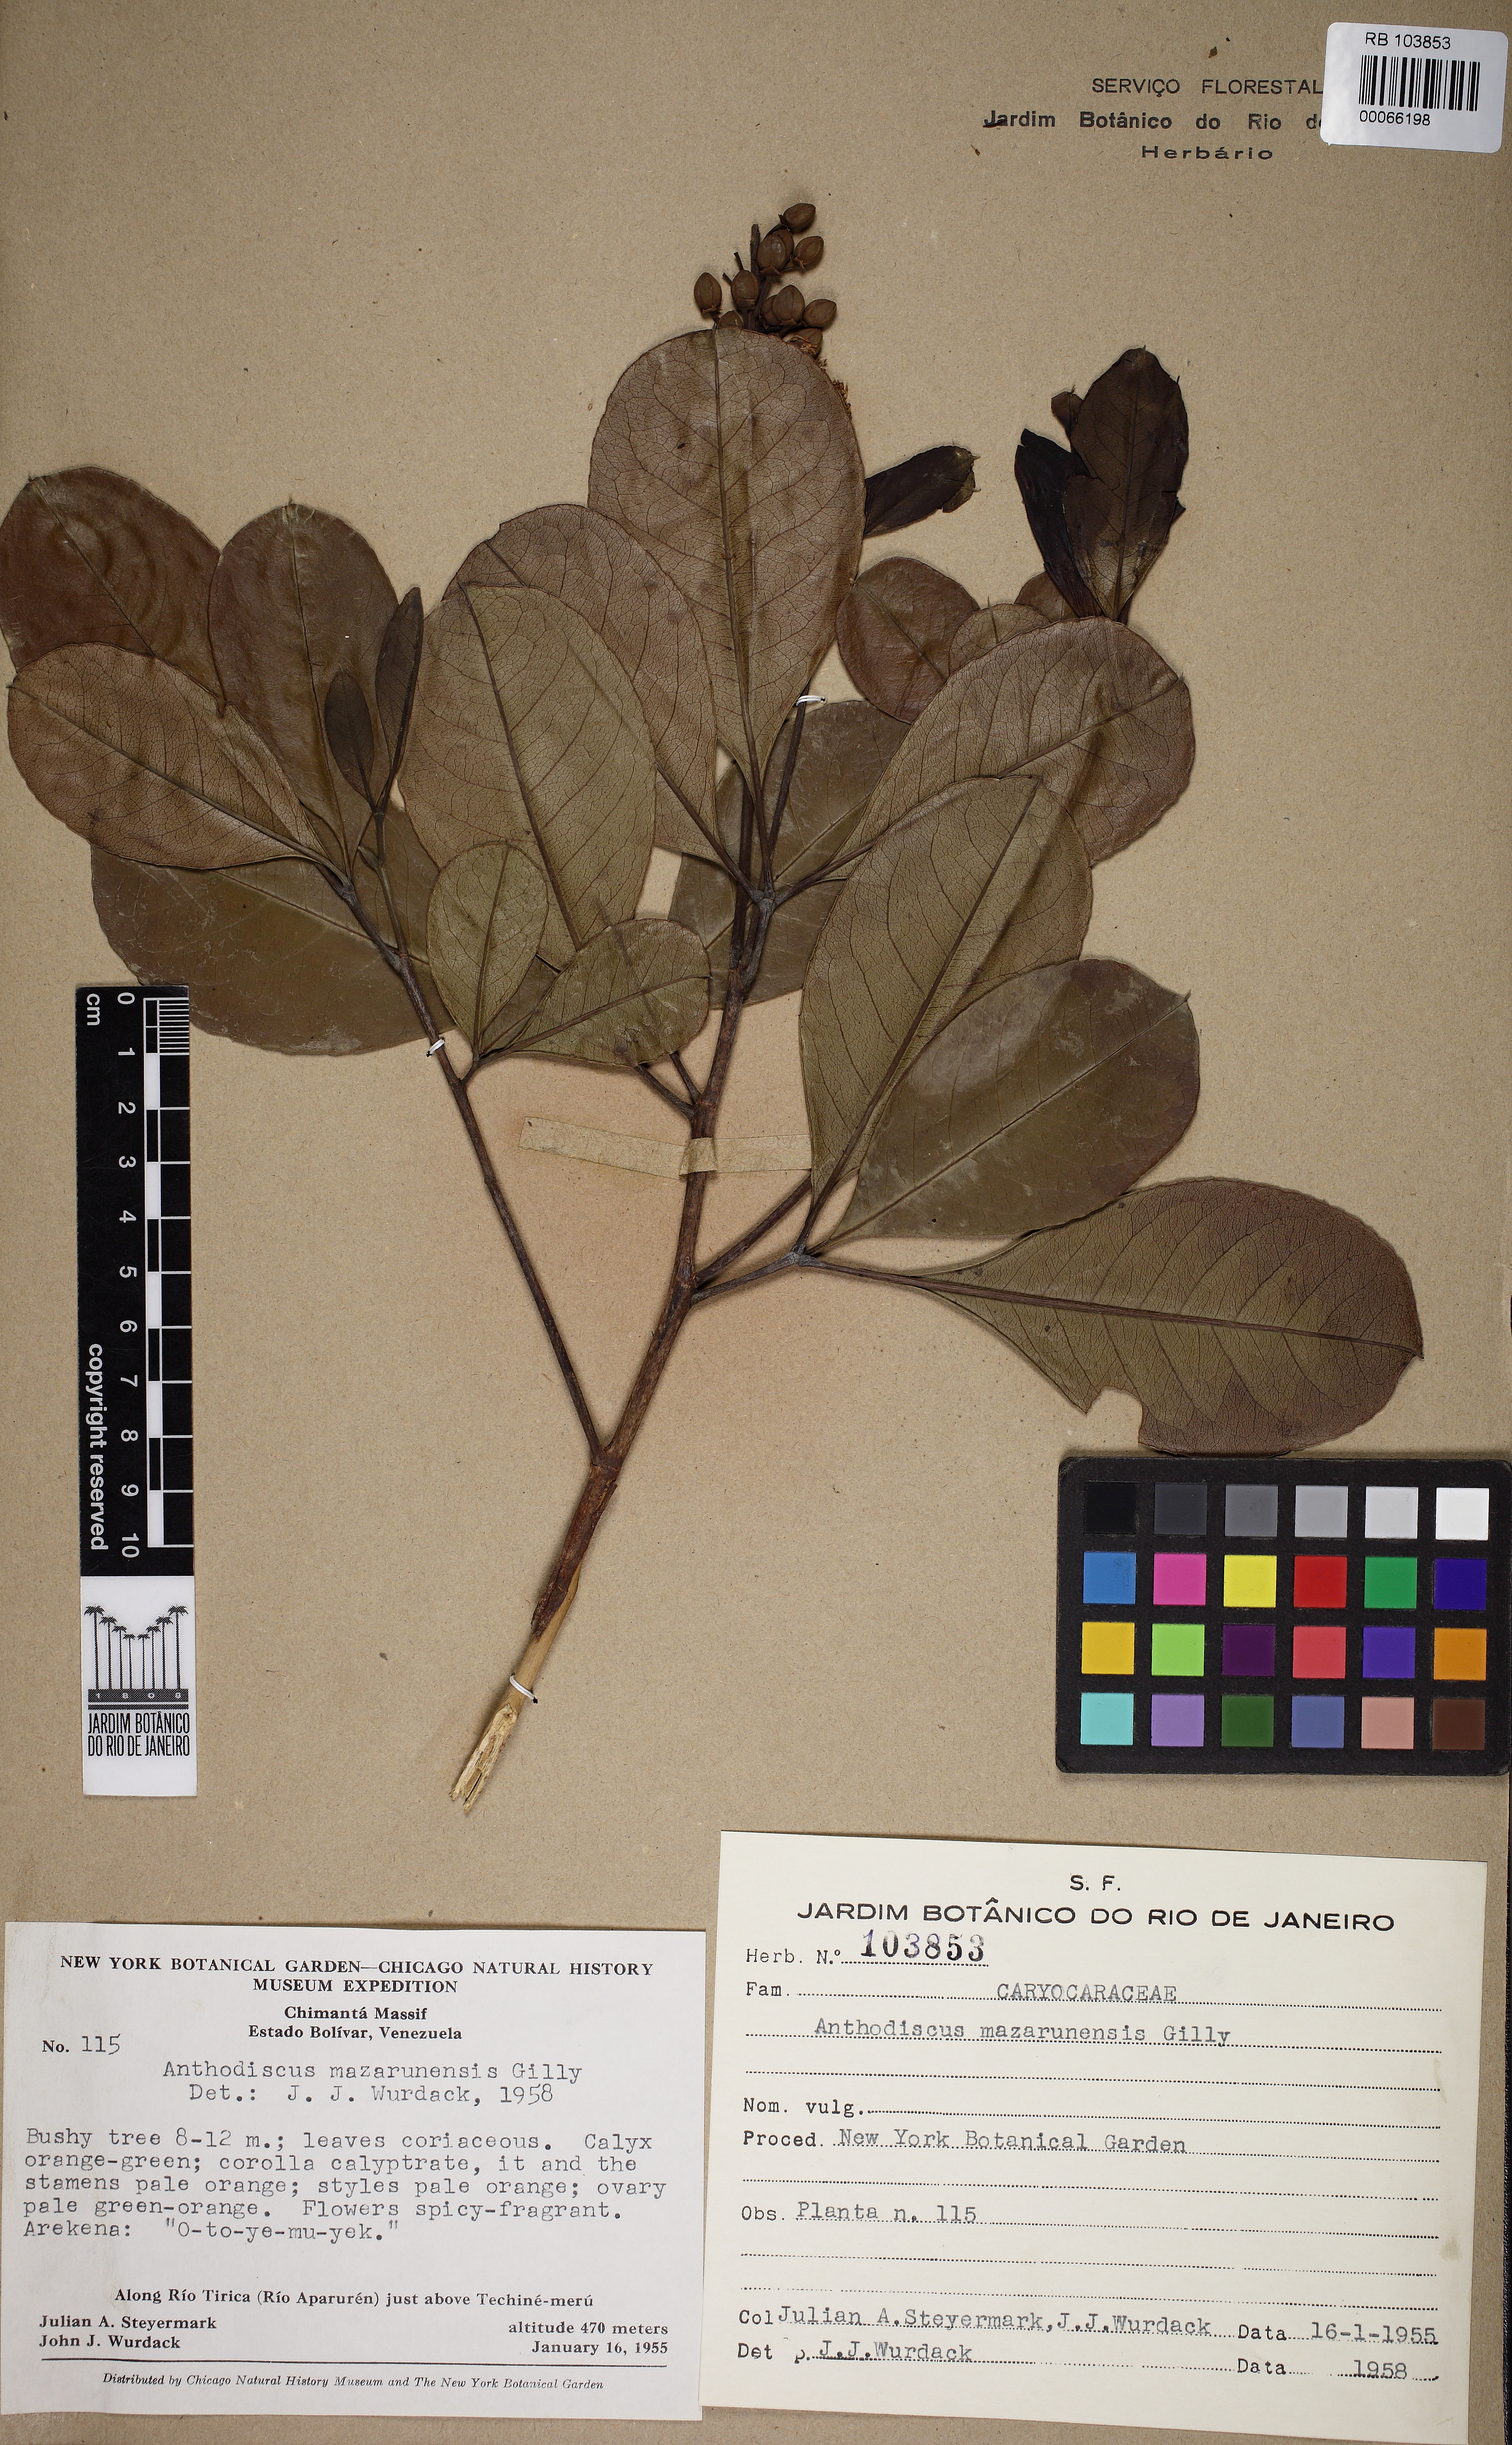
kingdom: Plantae
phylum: Tracheophyta
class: Magnoliopsida
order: Malpighiales
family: Caryocaraceae
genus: Anthodiscus
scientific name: Anthodiscus mazarunensis
